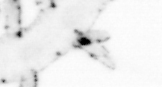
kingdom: Animalia
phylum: Annelida
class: Polychaeta
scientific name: Polychaeta
